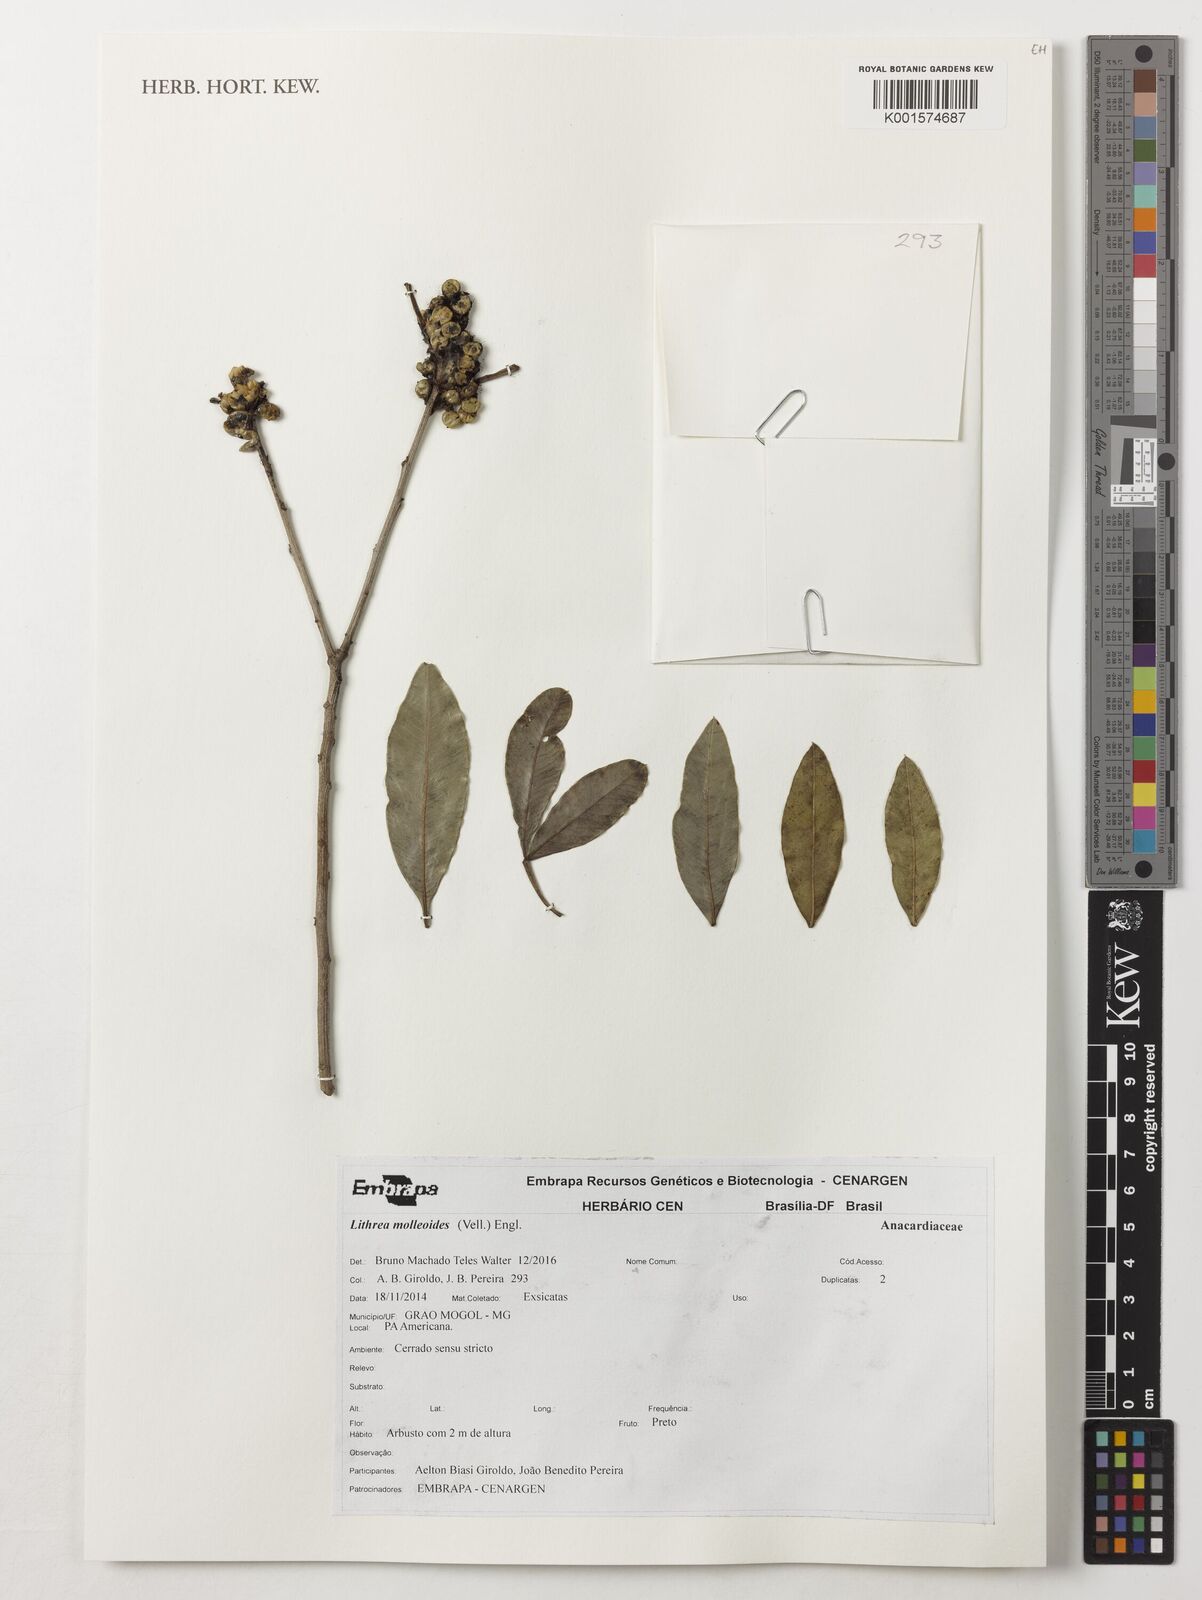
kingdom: Plantae
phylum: Tracheophyta
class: Magnoliopsida
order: Sapindales
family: Anacardiaceae
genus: Lithraea
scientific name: Lithraea molleoides
